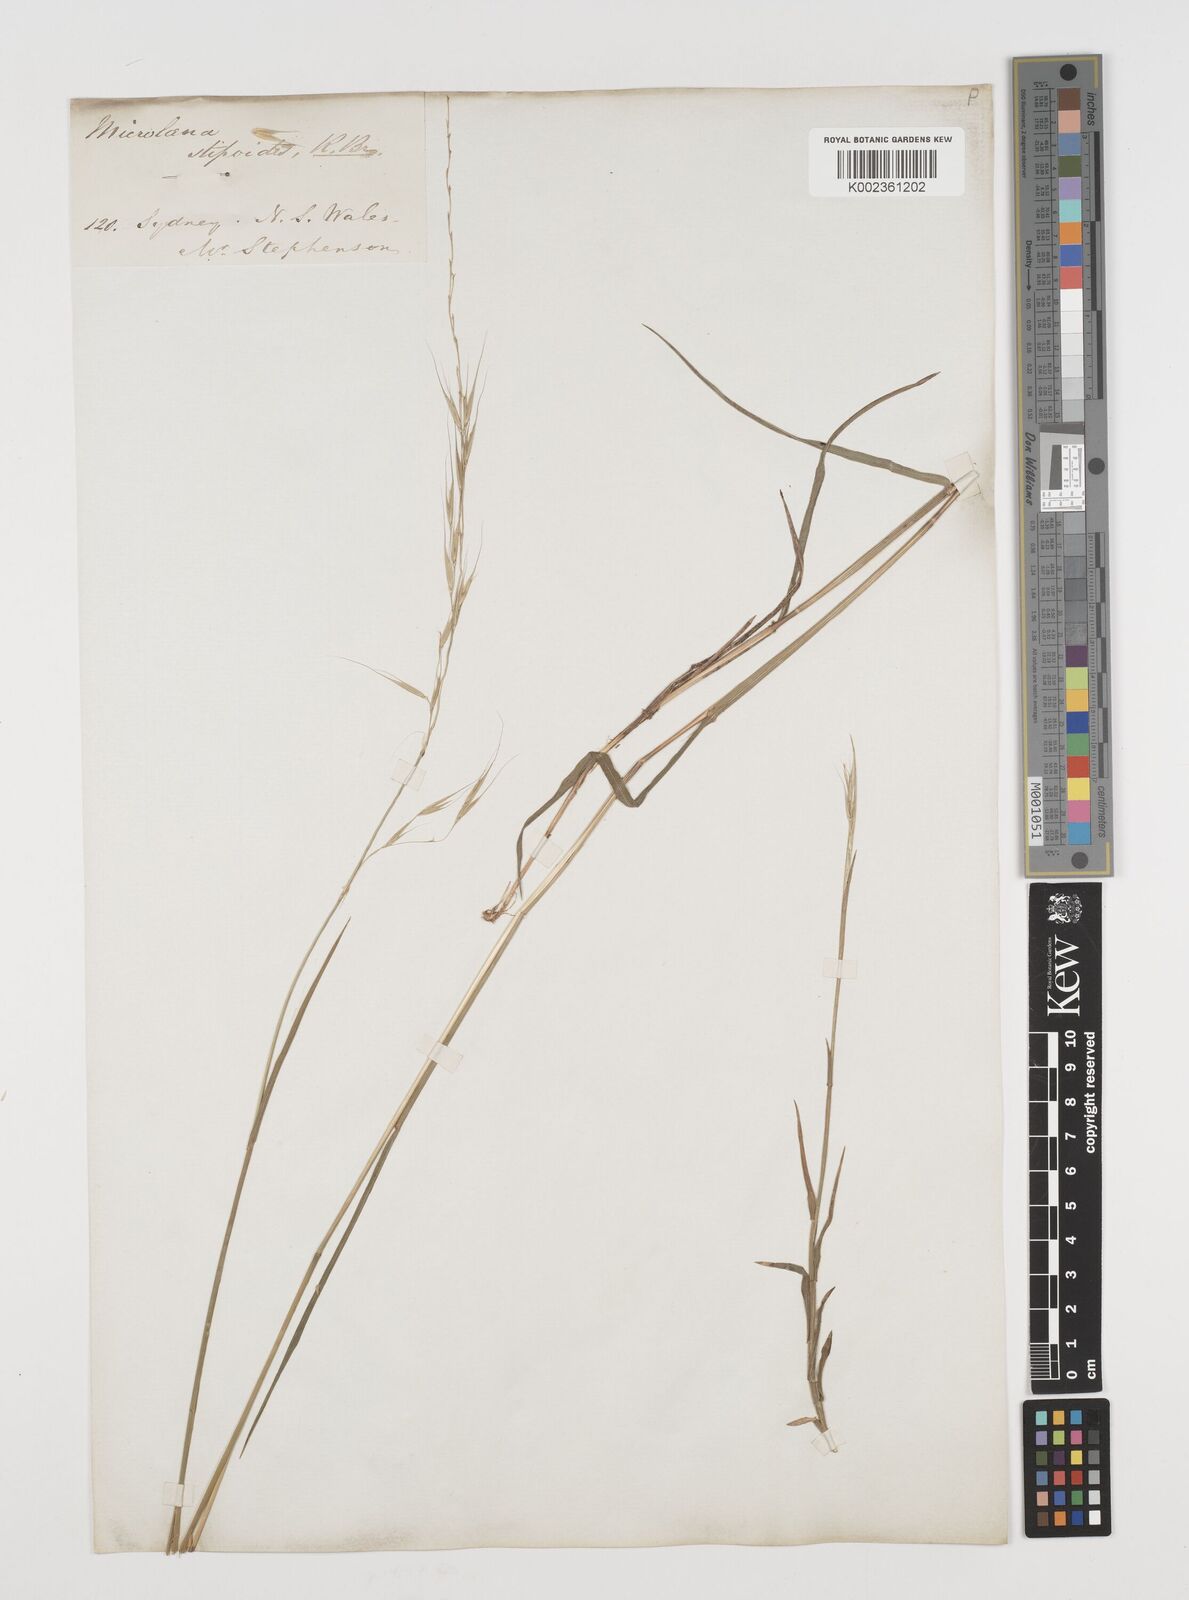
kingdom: Plantae
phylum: Tracheophyta
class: Liliopsida
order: Poales
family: Poaceae
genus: Microlaena
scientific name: Microlaena stipoides
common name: Meadow ricegrass
